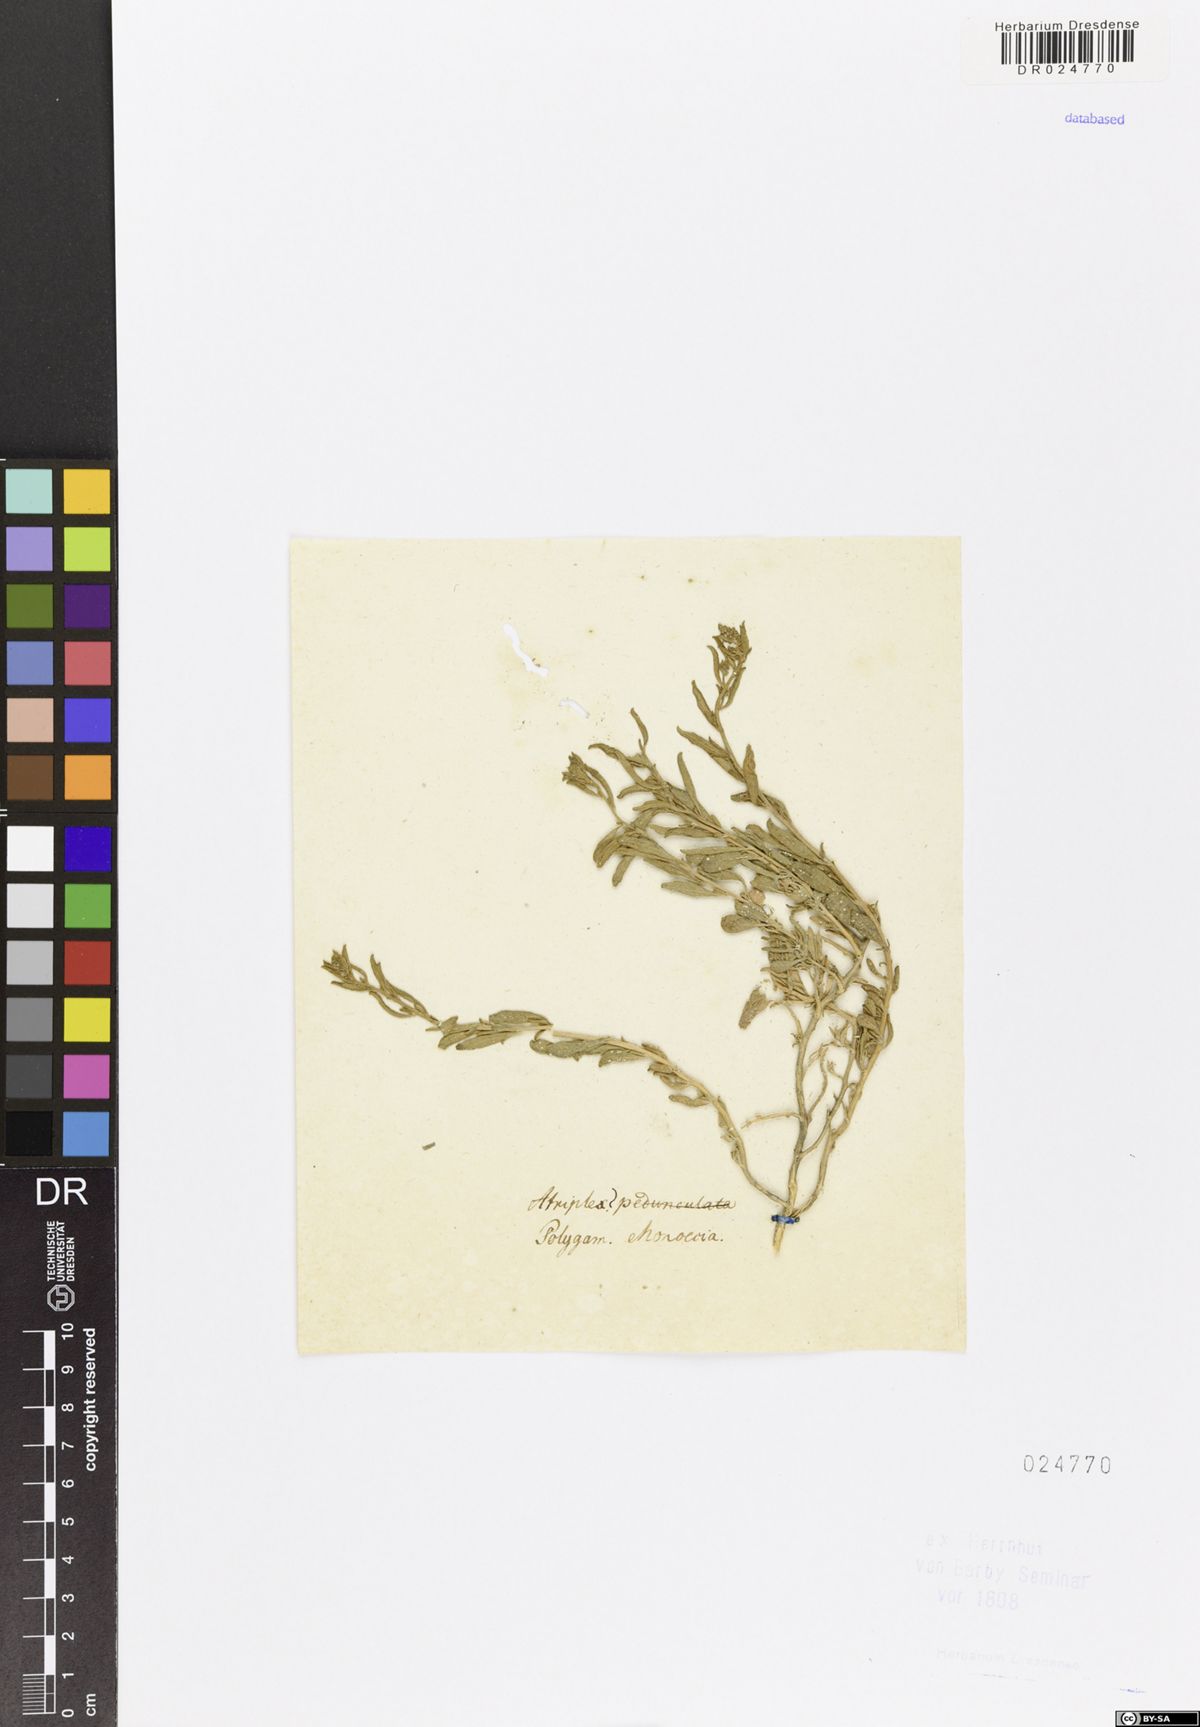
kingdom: Plantae
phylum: Tracheophyta
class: Magnoliopsida
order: Caryophyllales
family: Amaranthaceae
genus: Halimione
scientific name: Halimione pedunculata
